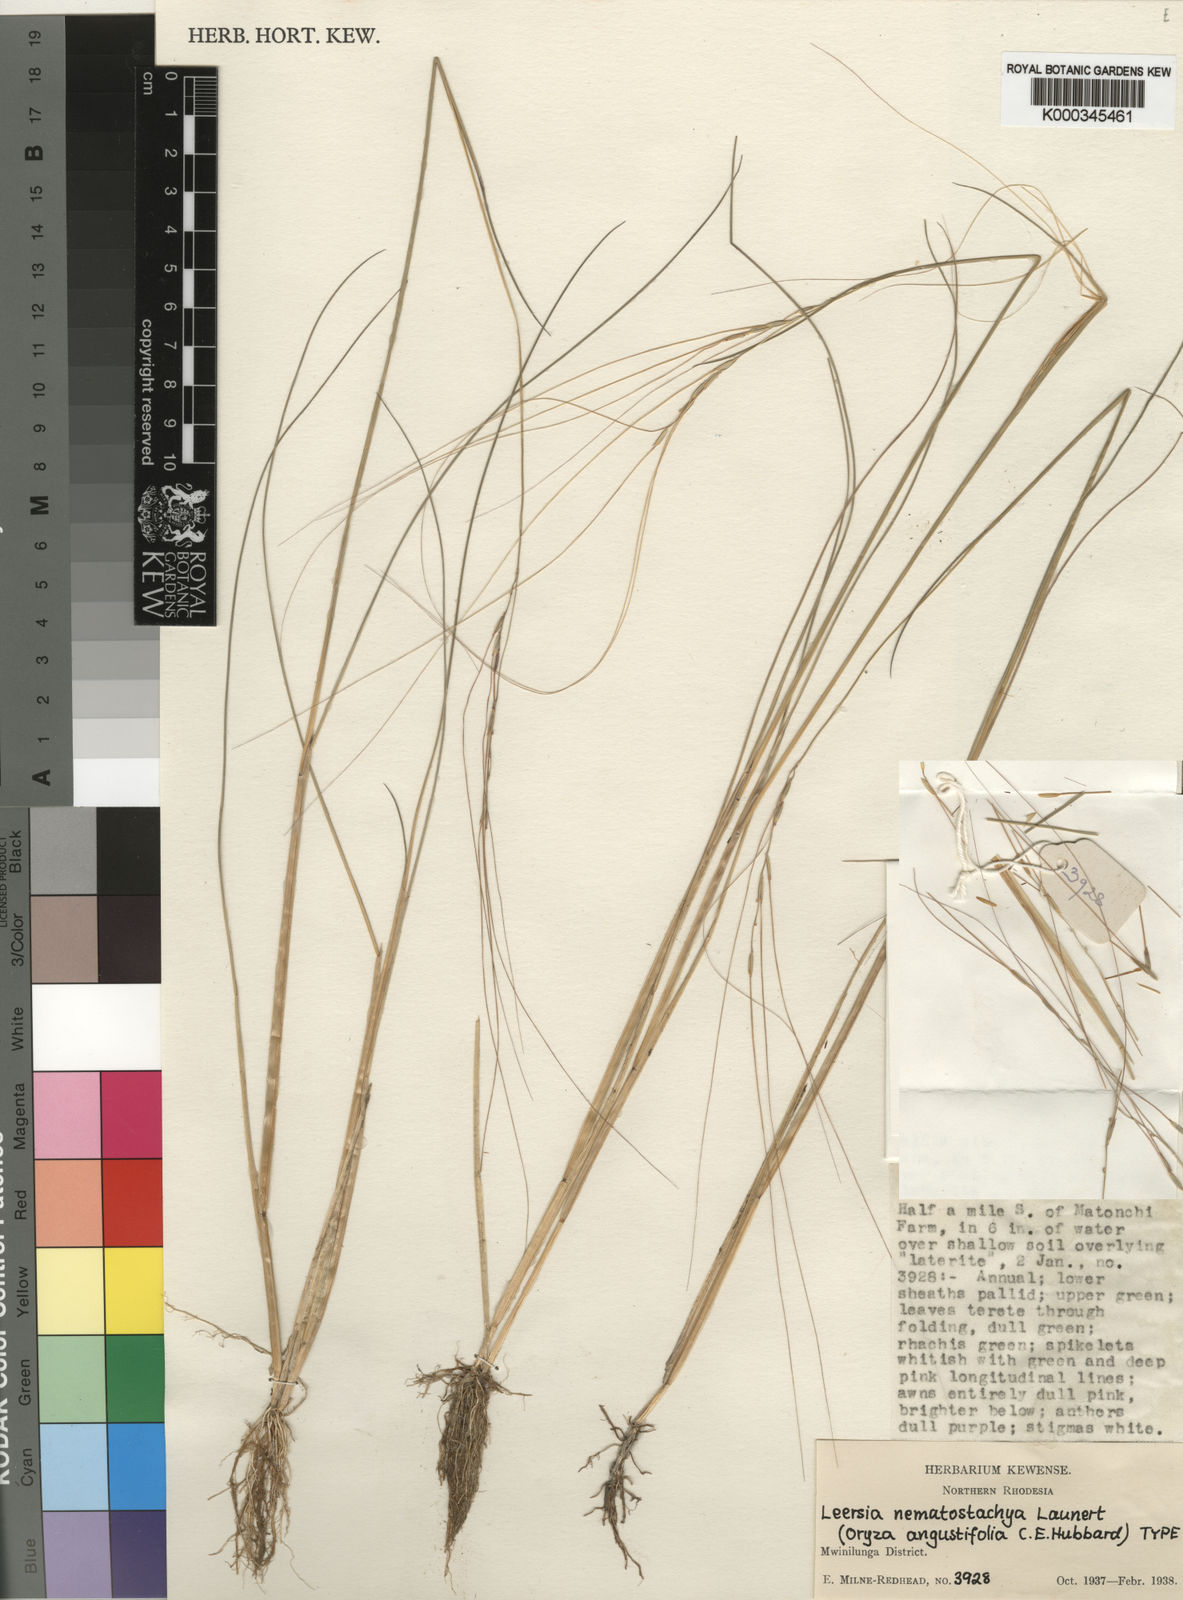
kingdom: Plantae
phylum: Tracheophyta
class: Liliopsida
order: Poales
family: Poaceae
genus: Leersia
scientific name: Leersia nematostachya
